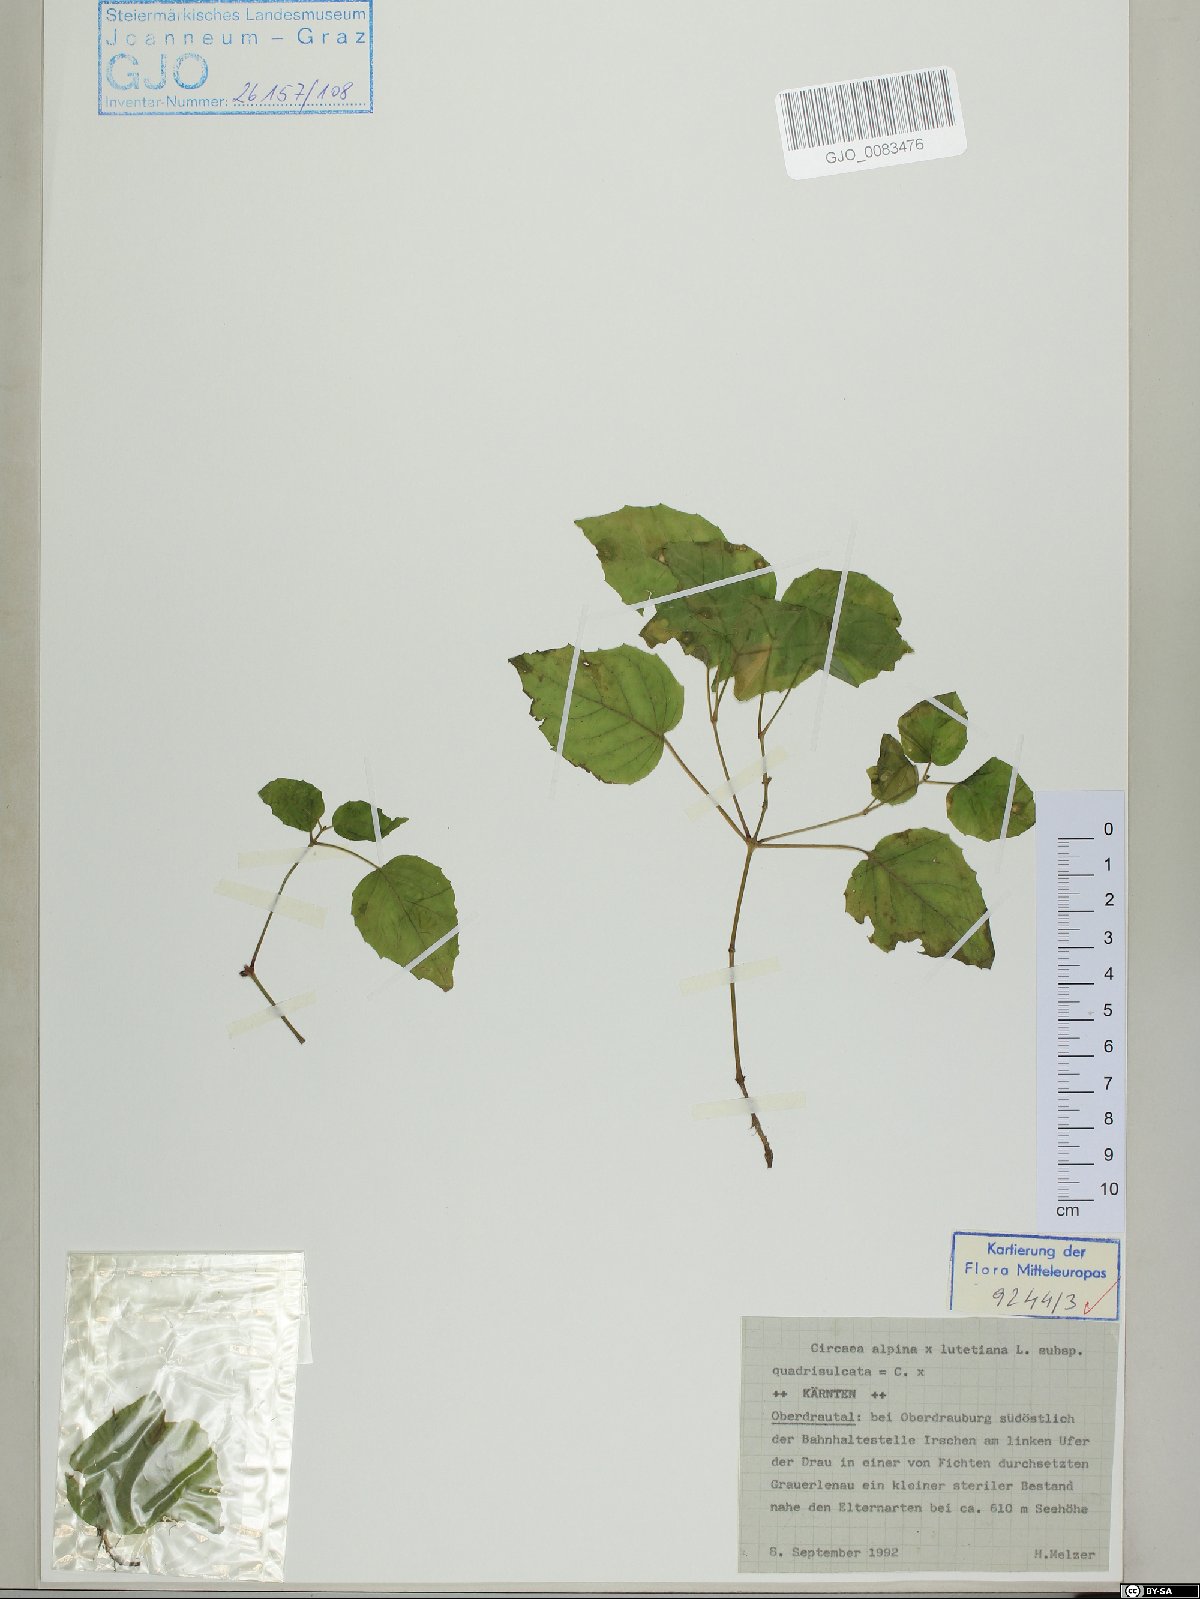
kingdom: Plantae
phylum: Tracheophyta
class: Magnoliopsida
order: Myrtales
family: Onagraceae
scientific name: Onagraceae
